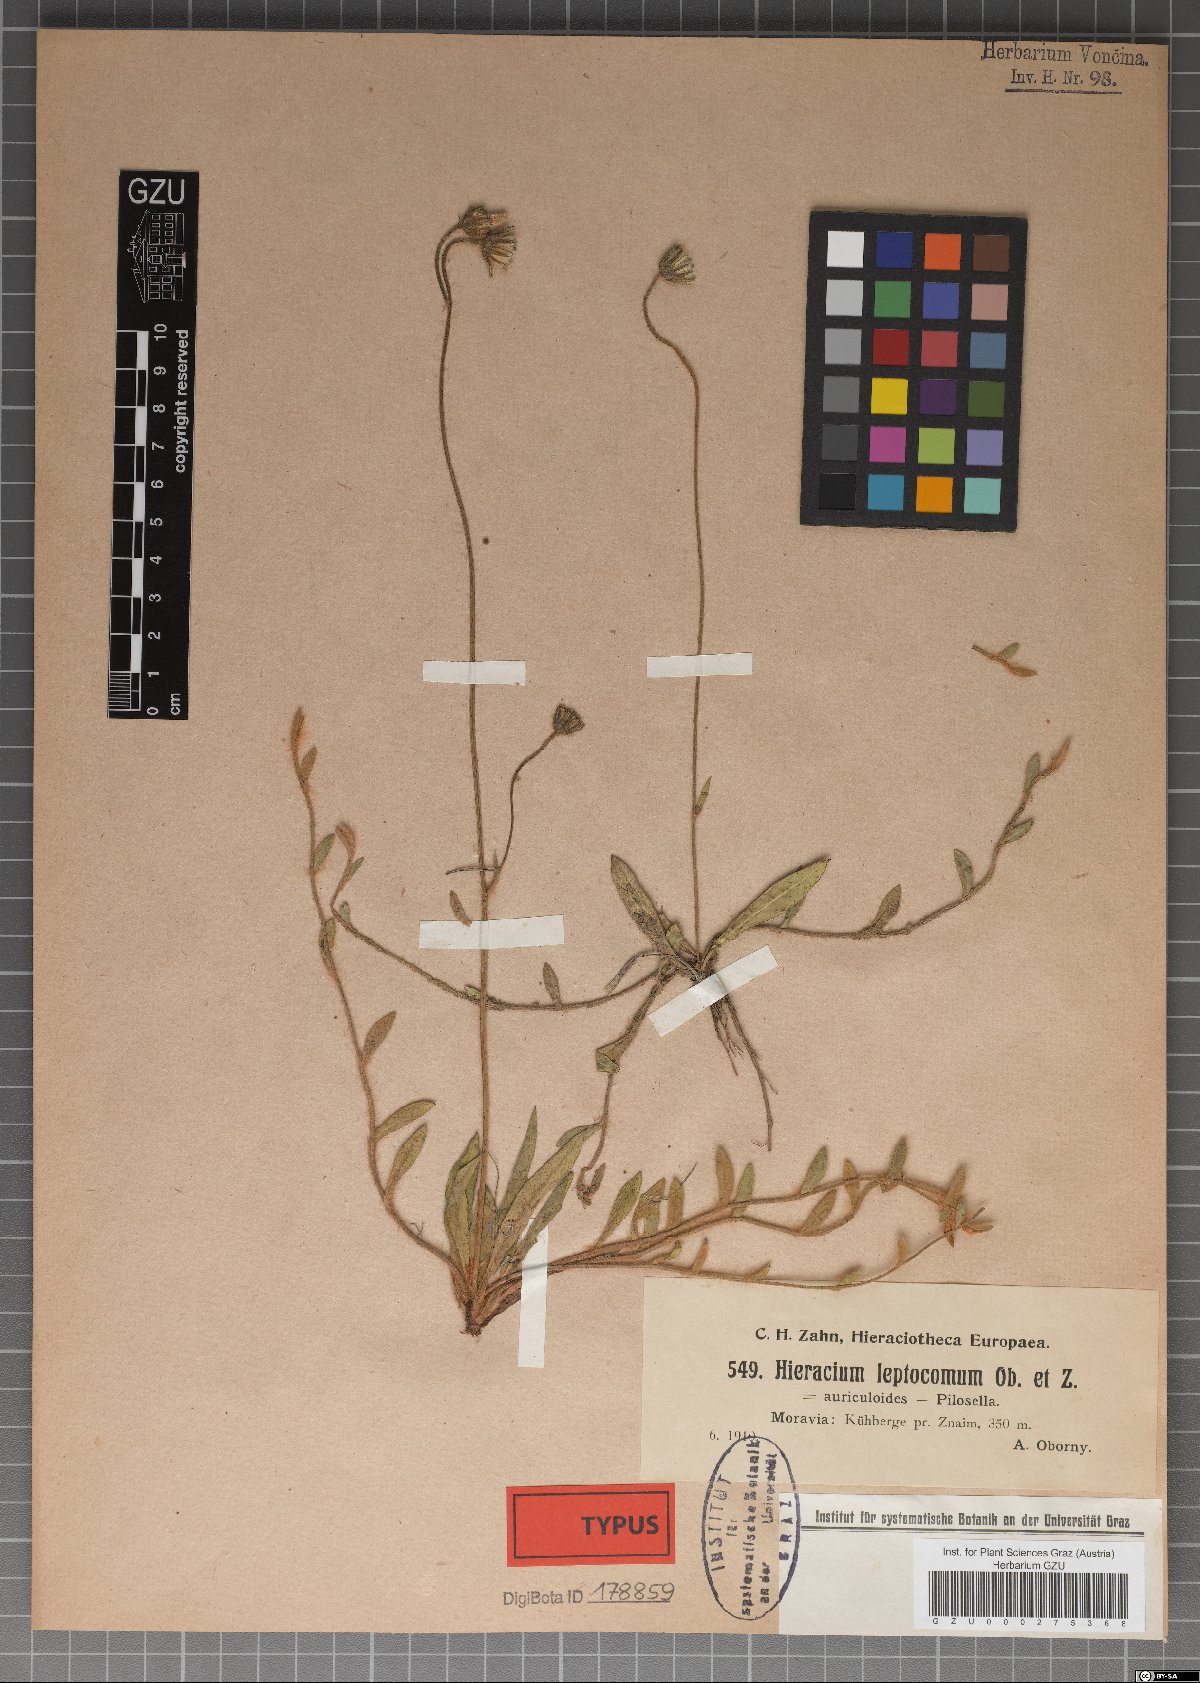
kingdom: Plantae
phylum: Tracheophyta
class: Magnoliopsida
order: Asterales
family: Asteraceae
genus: Hieracium
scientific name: Hieracium leptocomum
